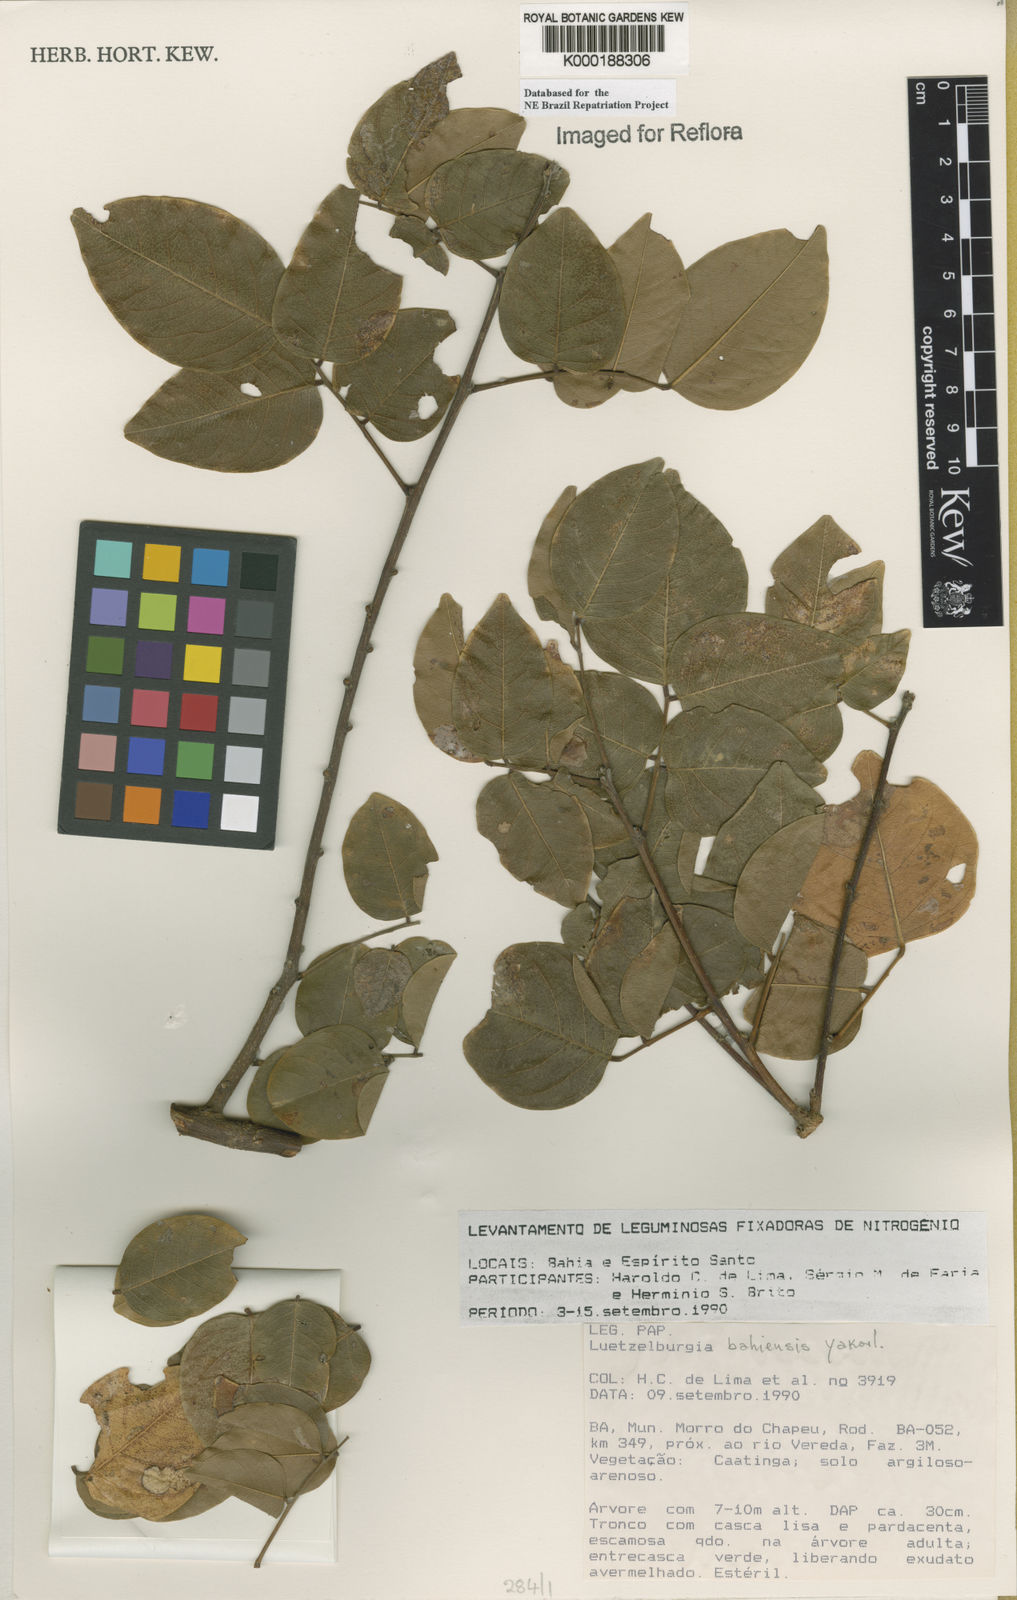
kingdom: Plantae
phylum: Tracheophyta
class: Magnoliopsida
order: Fabales
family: Fabaceae
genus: Luetzelburgia
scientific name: Luetzelburgia bahiensis
